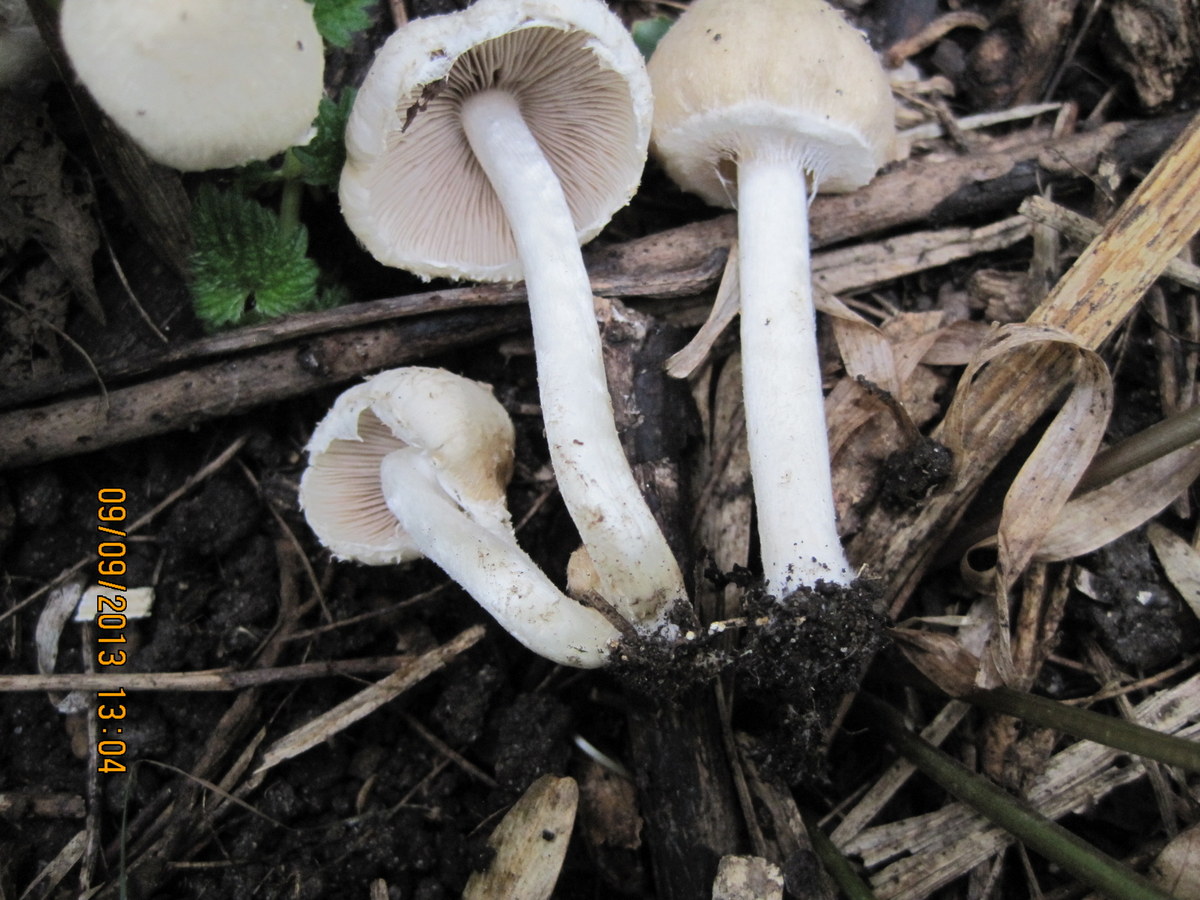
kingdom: Fungi
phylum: Basidiomycota
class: Agaricomycetes
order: Agaricales
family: Psathyrellaceae
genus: Candolleomyces
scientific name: Candolleomyces candolleanus
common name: Candolles mørkhat
